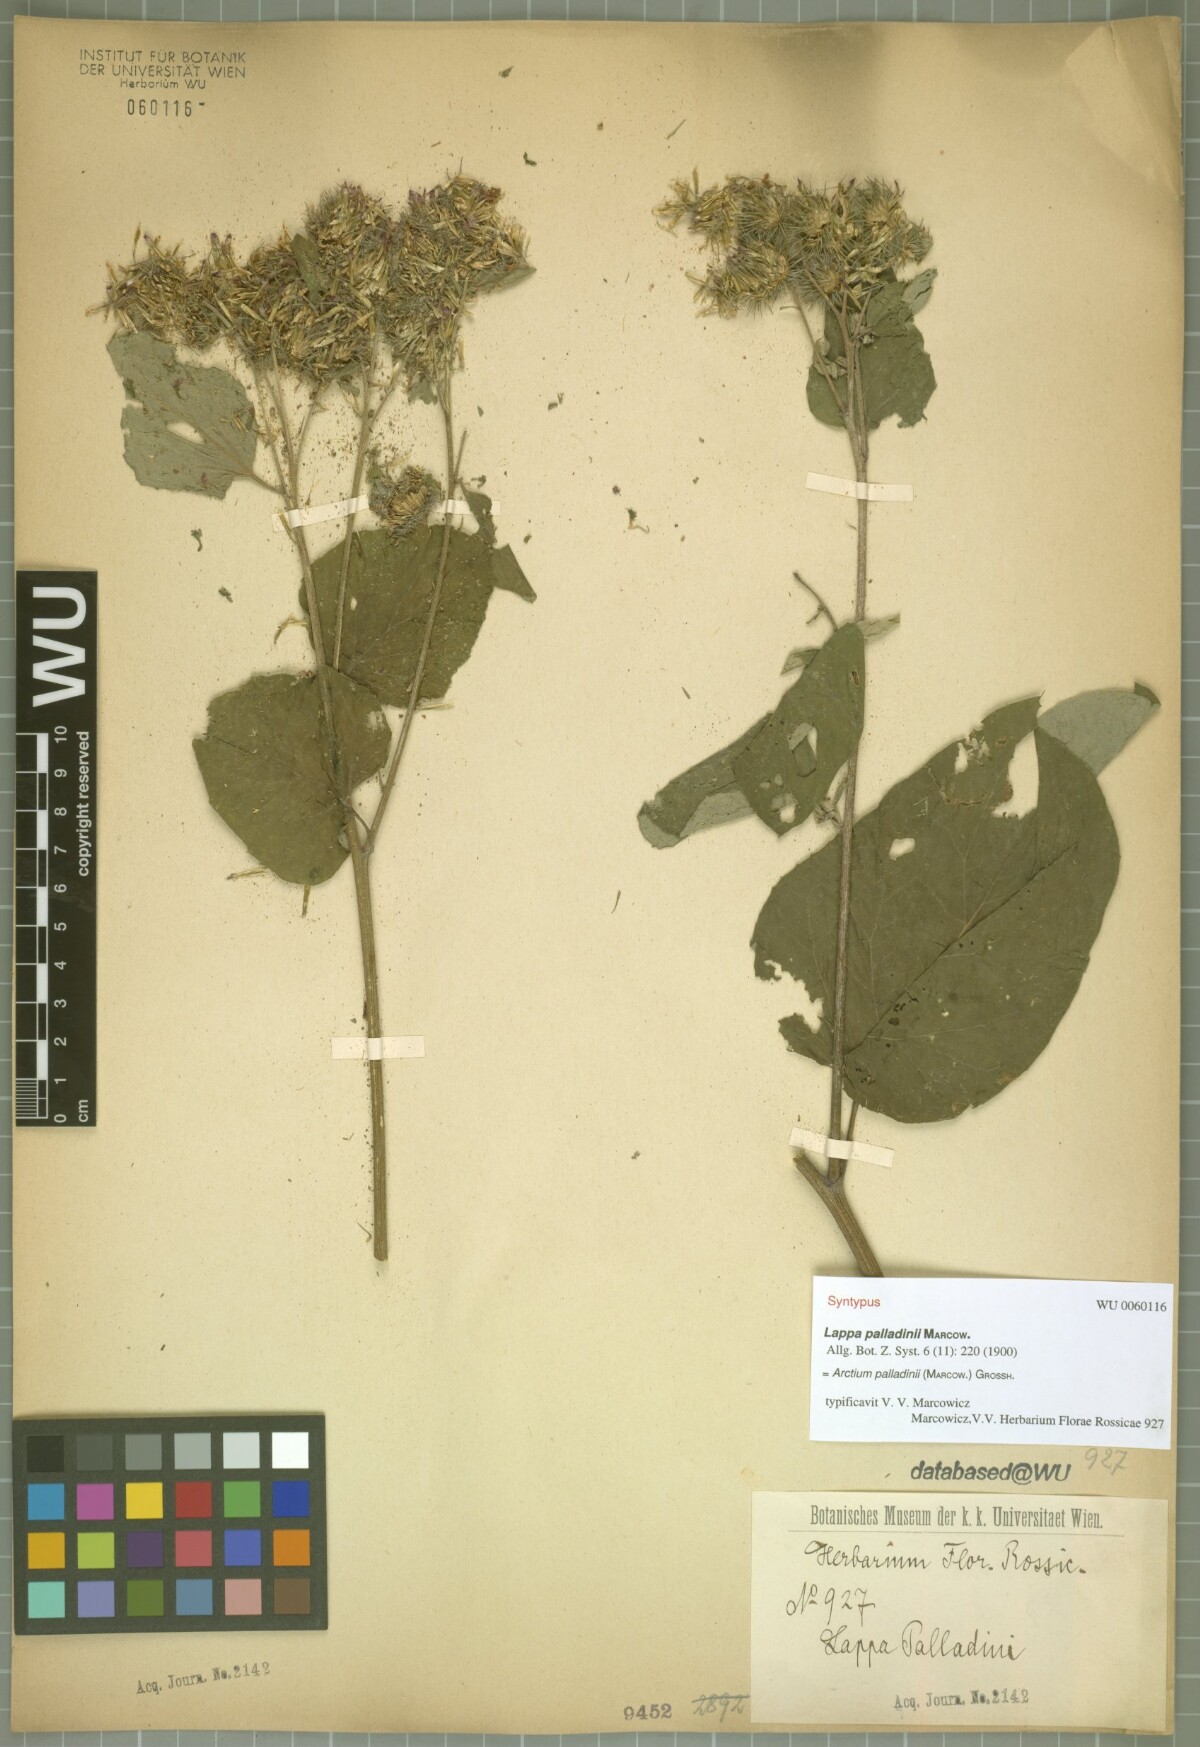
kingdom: Plantae
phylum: Tracheophyta
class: Magnoliopsida
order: Asterales
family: Asteraceae
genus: Arctium
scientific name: Arctium palladini
